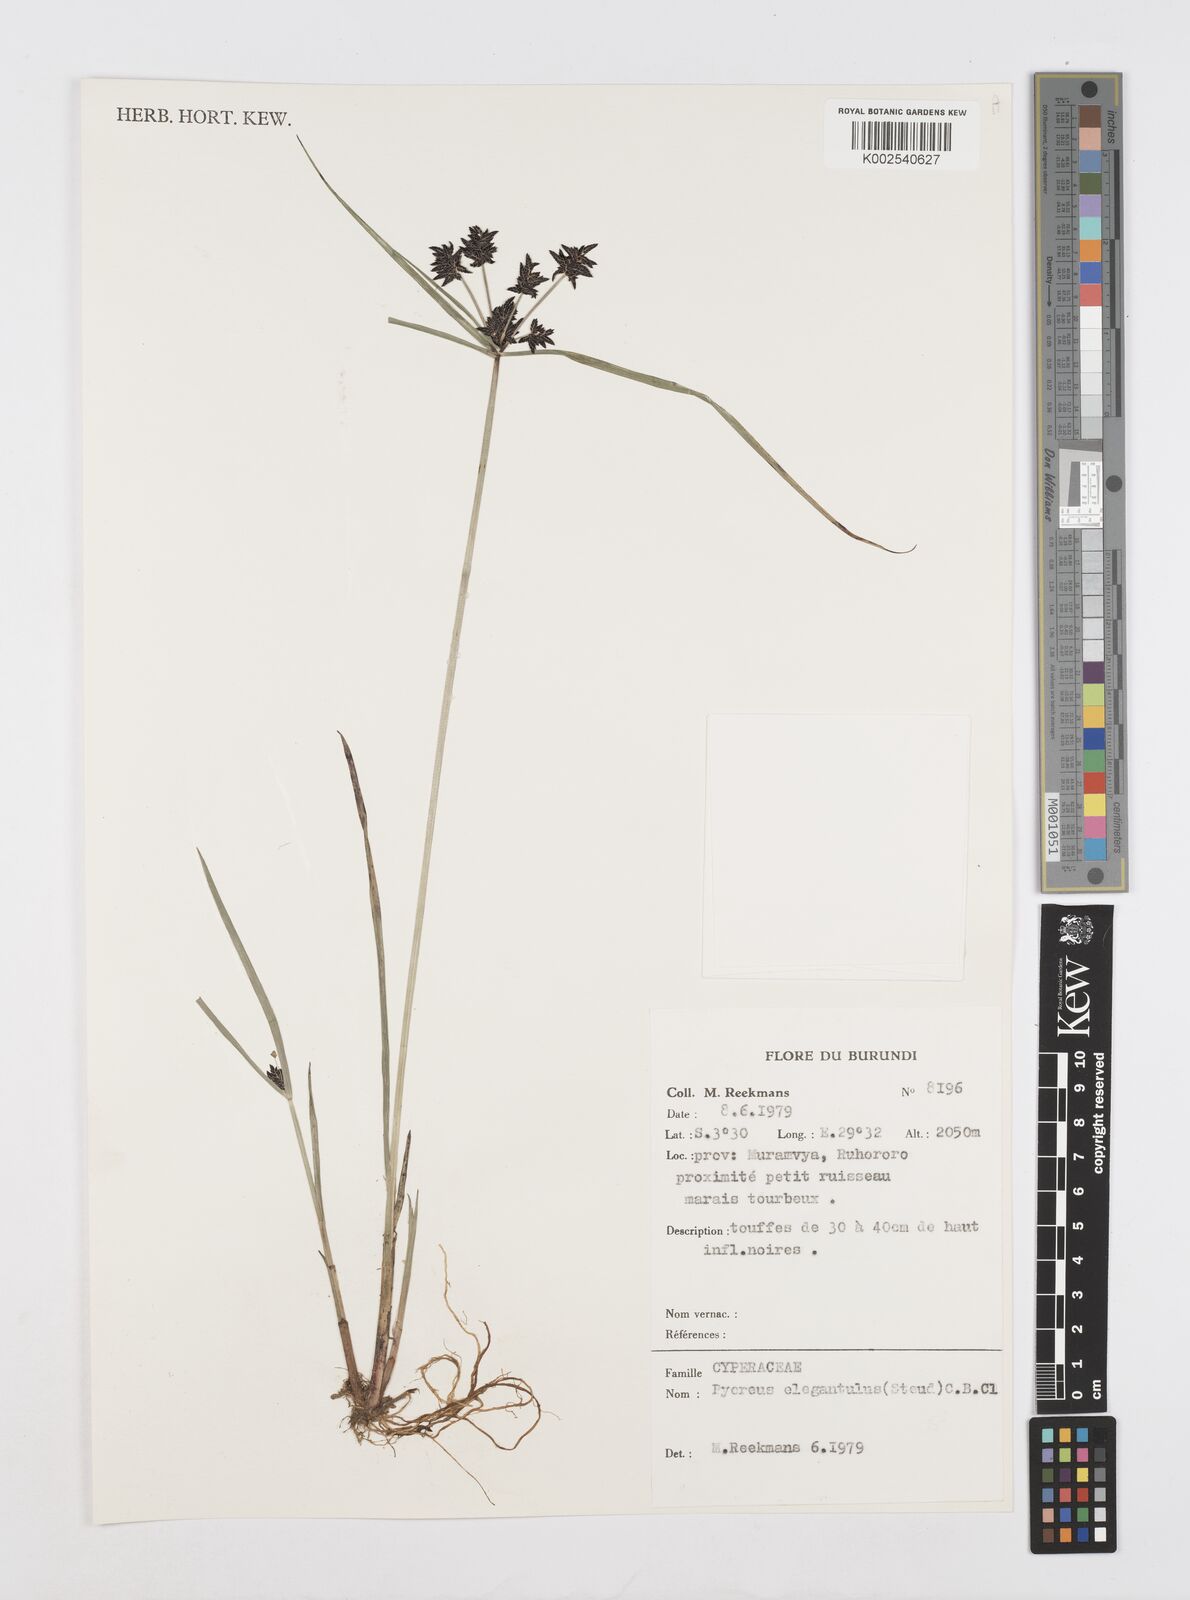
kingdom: Plantae
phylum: Tracheophyta
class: Liliopsida
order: Poales
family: Cyperaceae
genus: Cyperus
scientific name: Cyperus elegantulus
